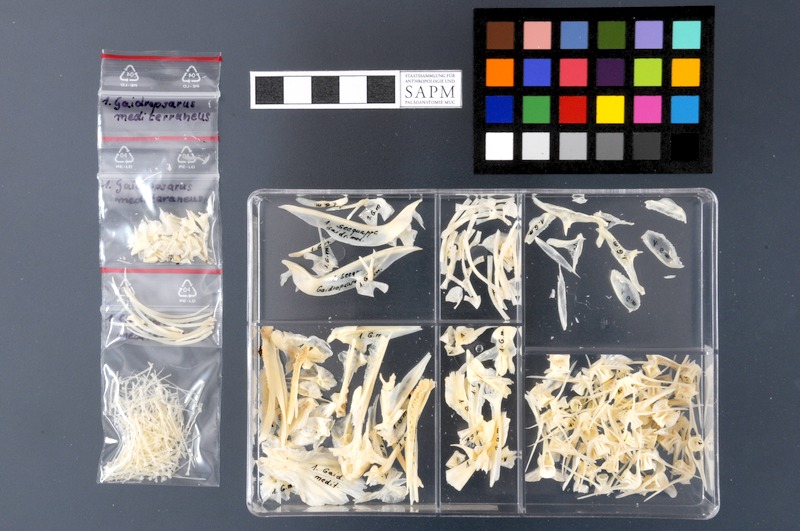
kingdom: Animalia
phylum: Chordata
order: Gadiformes
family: Lotidae
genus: Gaidropsarus
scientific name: Gaidropsarus mediterraneus
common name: Shore rockling
